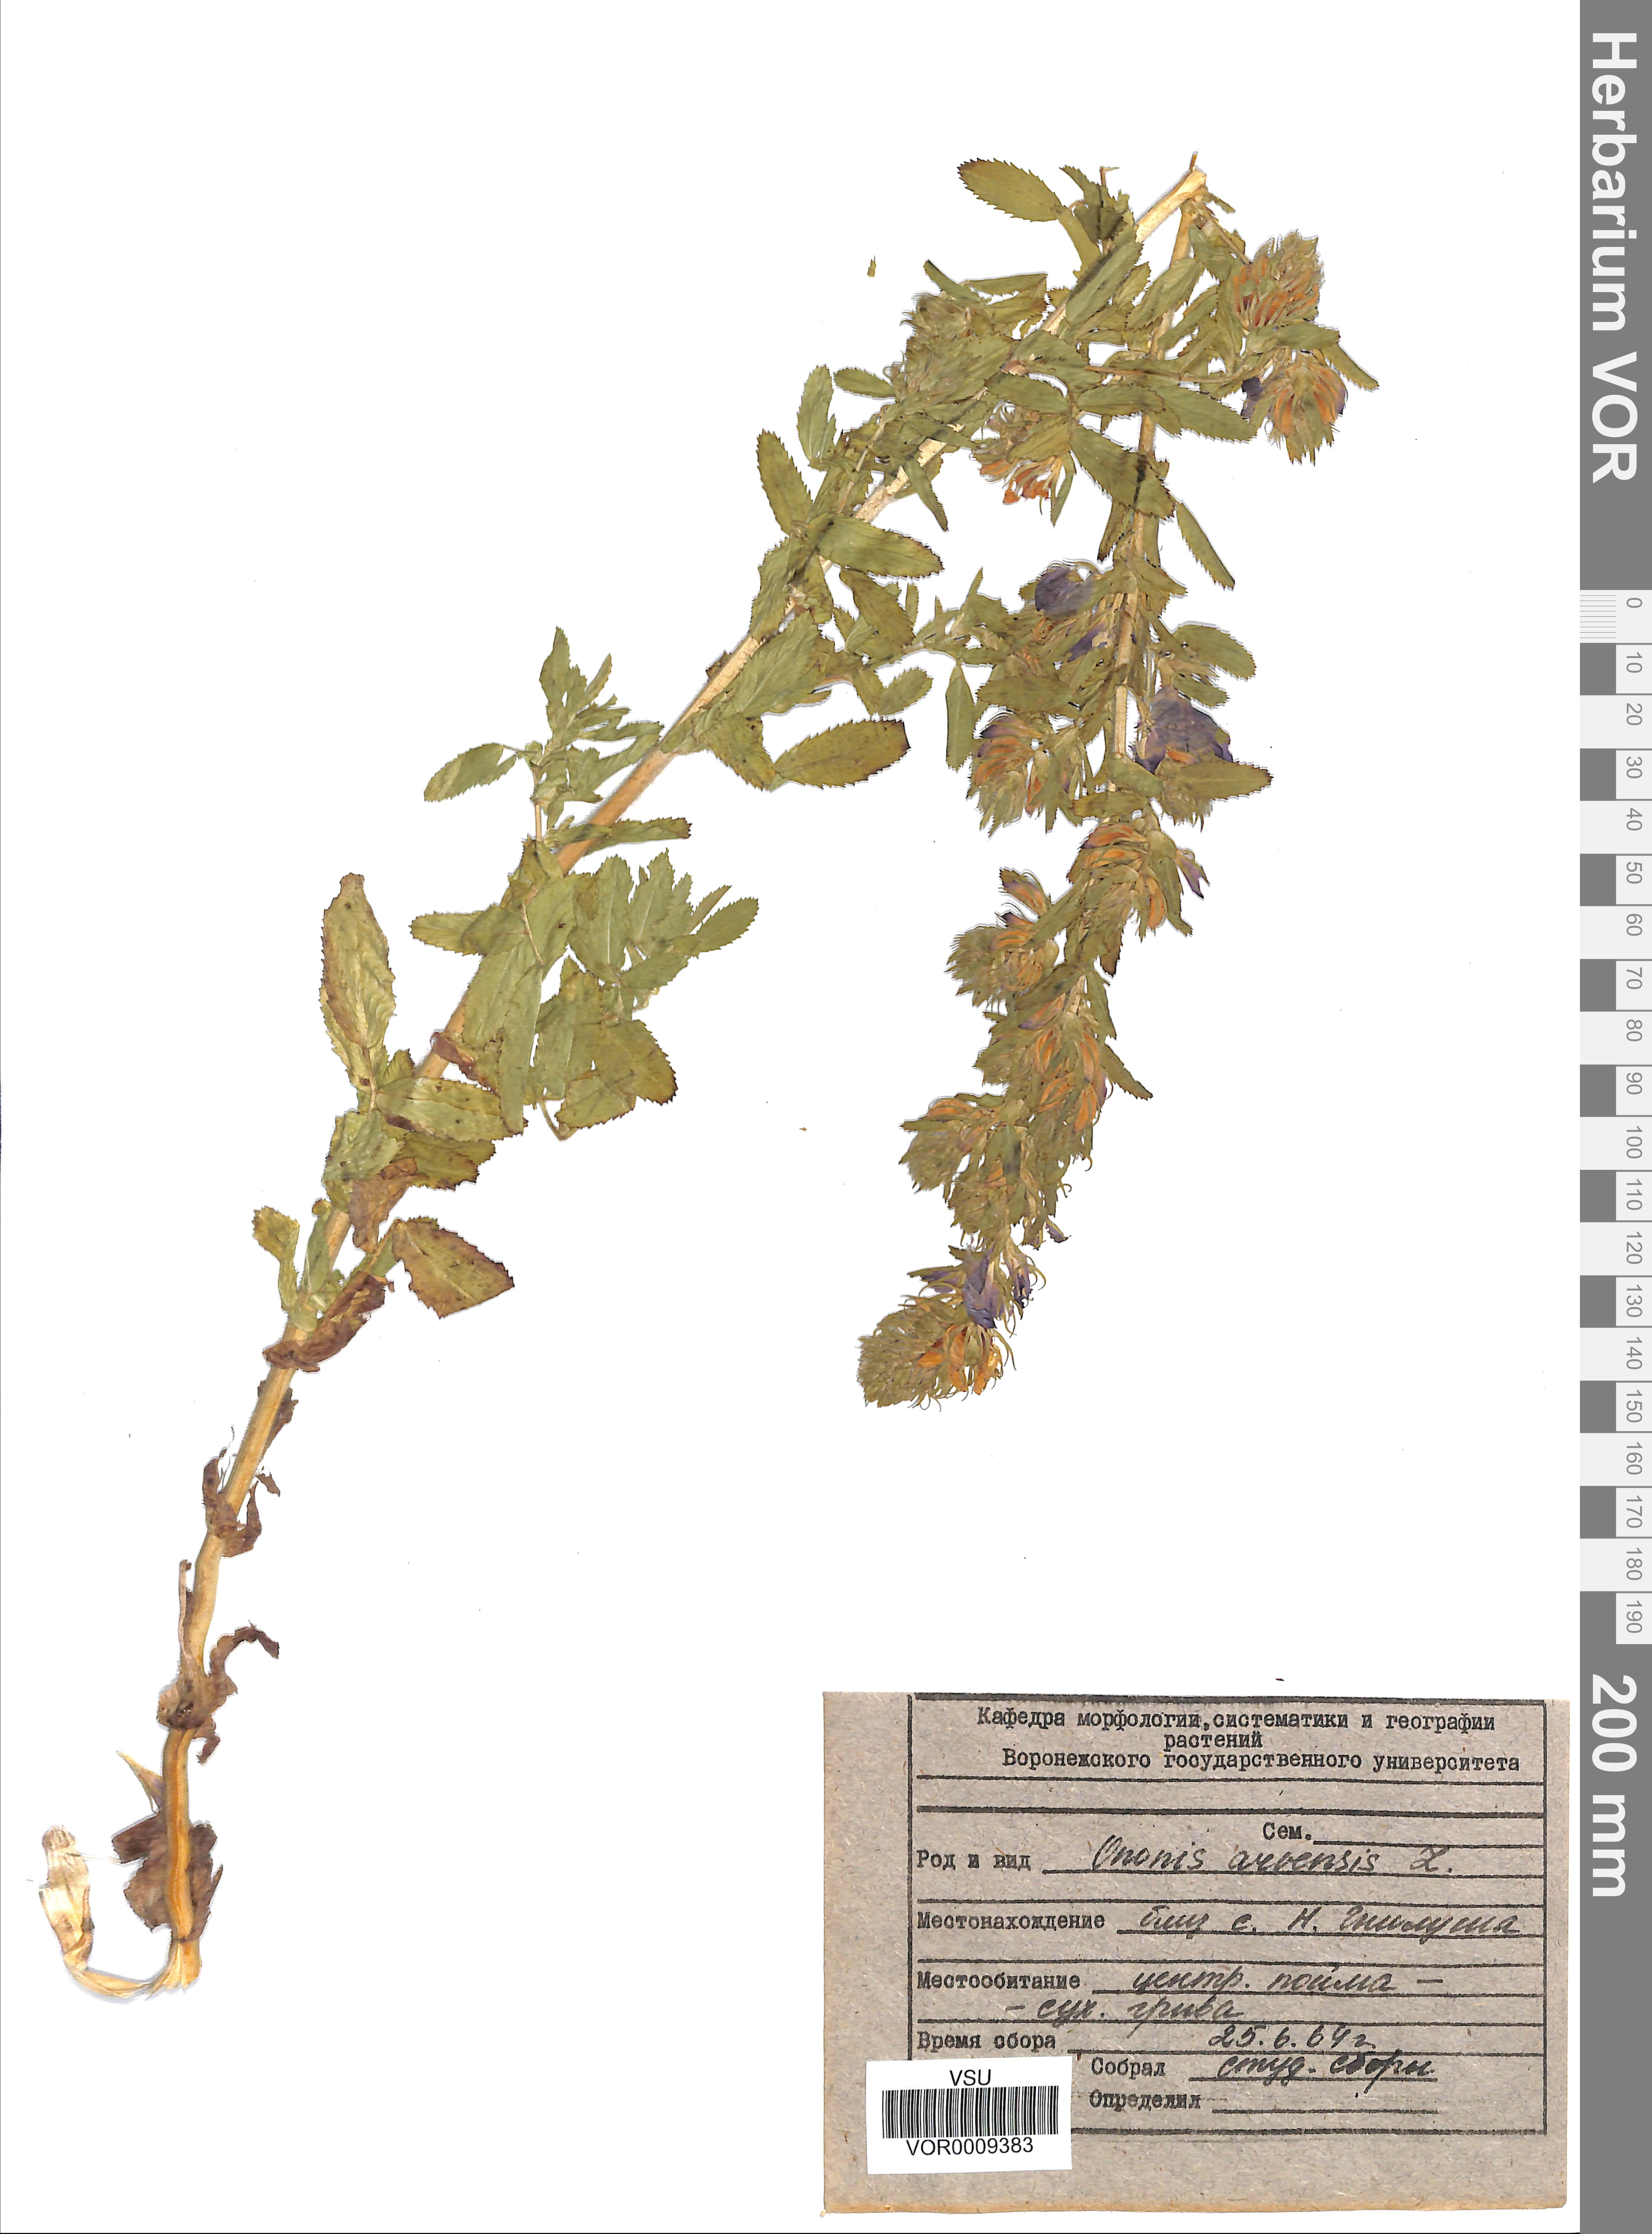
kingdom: Plantae
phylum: Tracheophyta
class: Magnoliopsida
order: Fabales
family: Fabaceae
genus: Ononis
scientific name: Ononis arvensis
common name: Field restharrow
